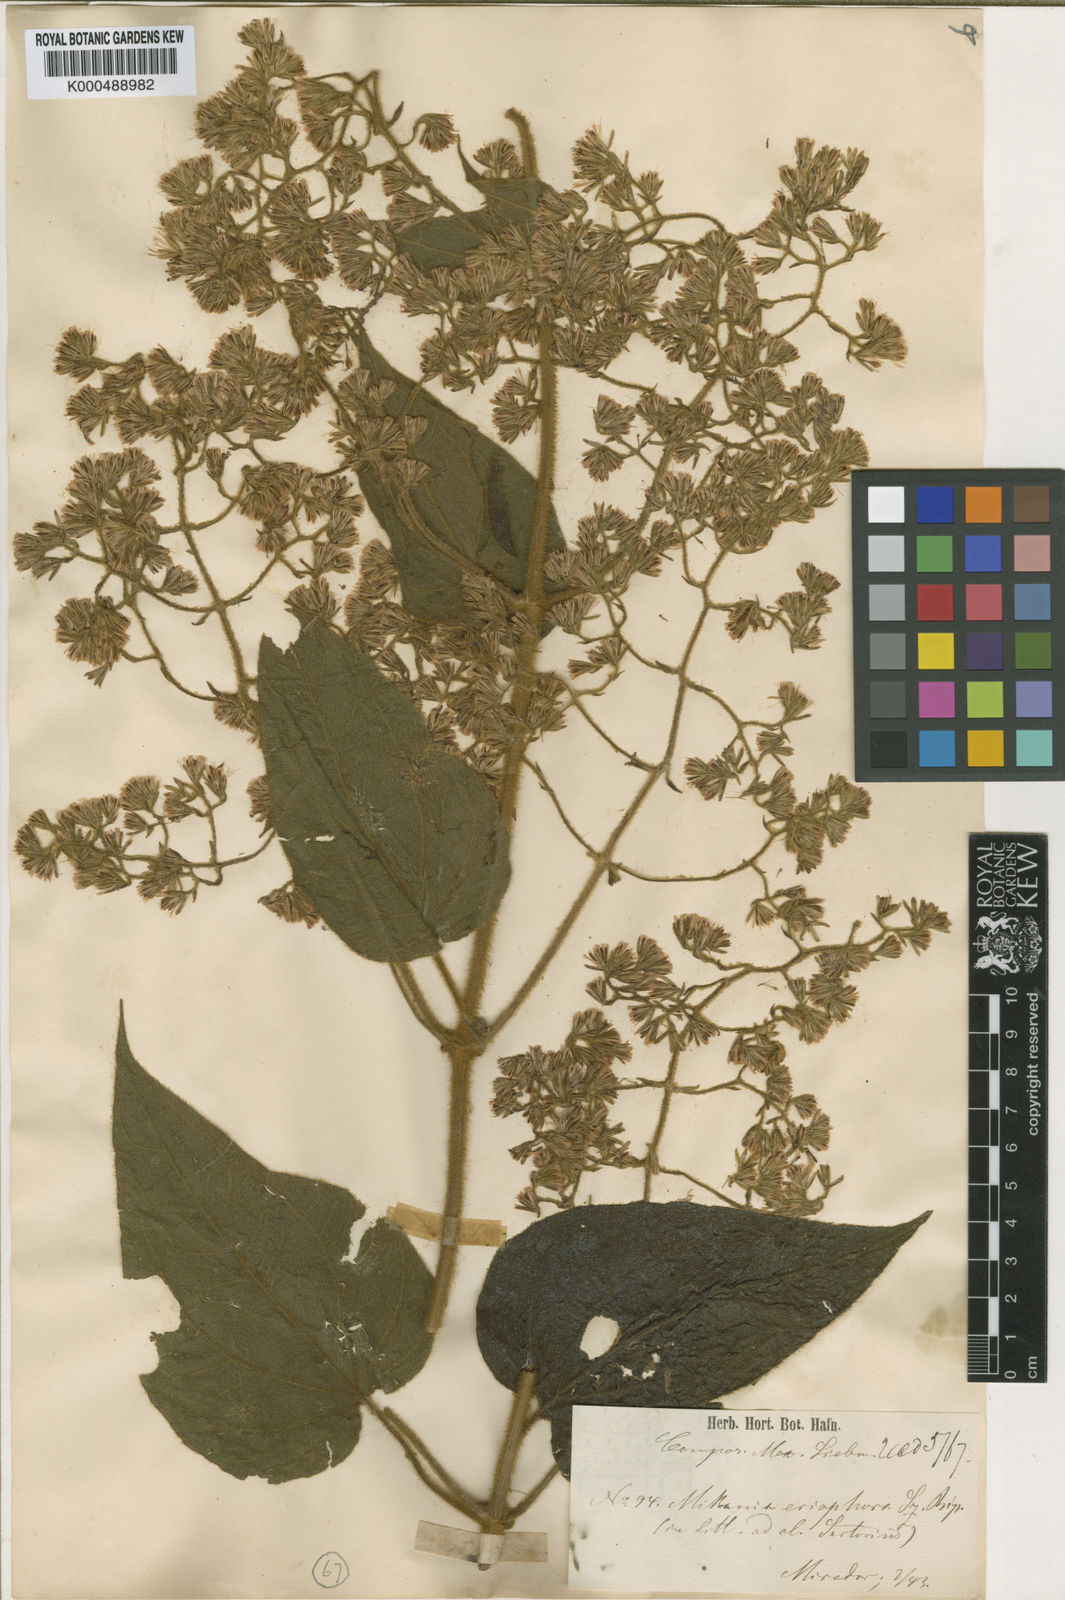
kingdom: Plantae
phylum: Tracheophyta
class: Magnoliopsida
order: Asterales
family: Asteraceae
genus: Mikania
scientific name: Mikania pyramidata
